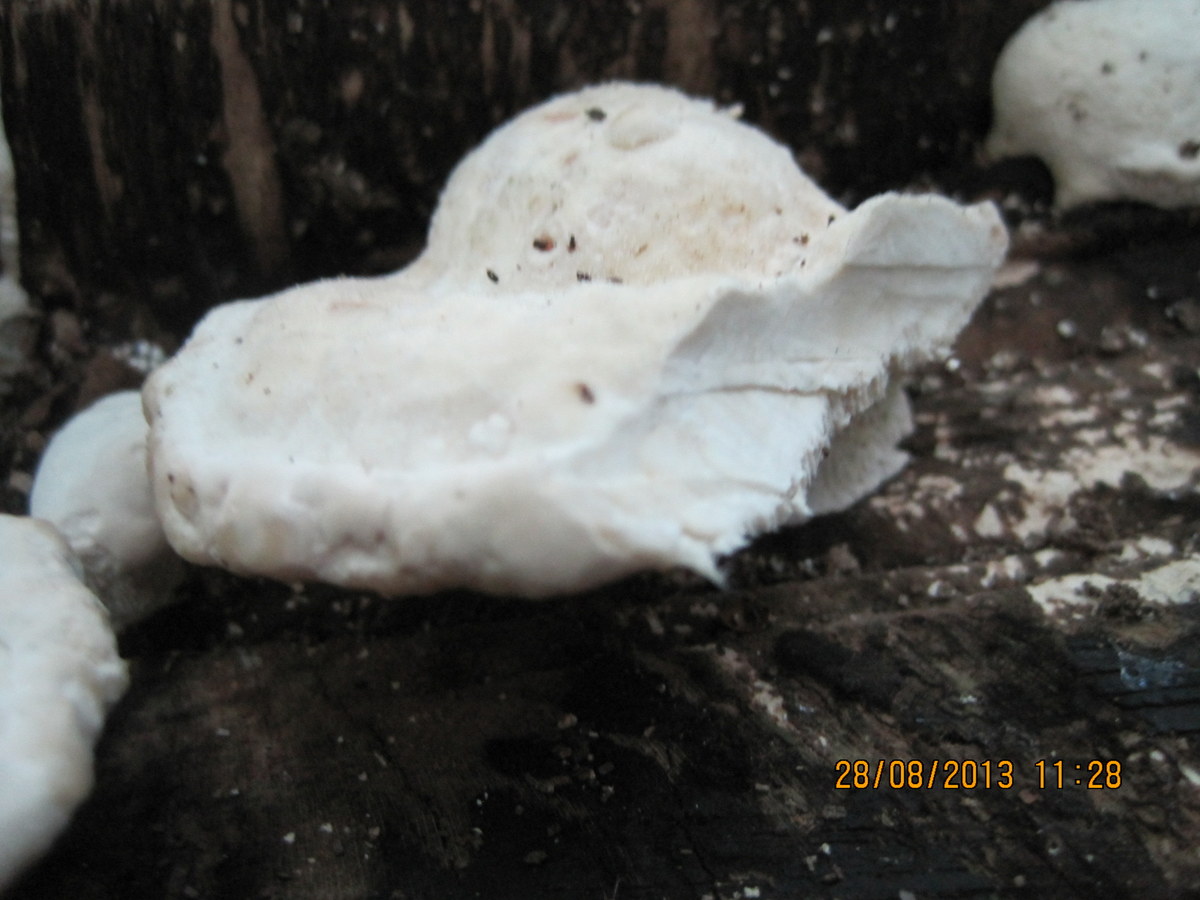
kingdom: Fungi
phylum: Basidiomycota
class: Agaricomycetes
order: Polyporales
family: Incrustoporiaceae
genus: Tyromyces
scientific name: Tyromyces lacteus
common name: mælkehvid kødporesvamp
